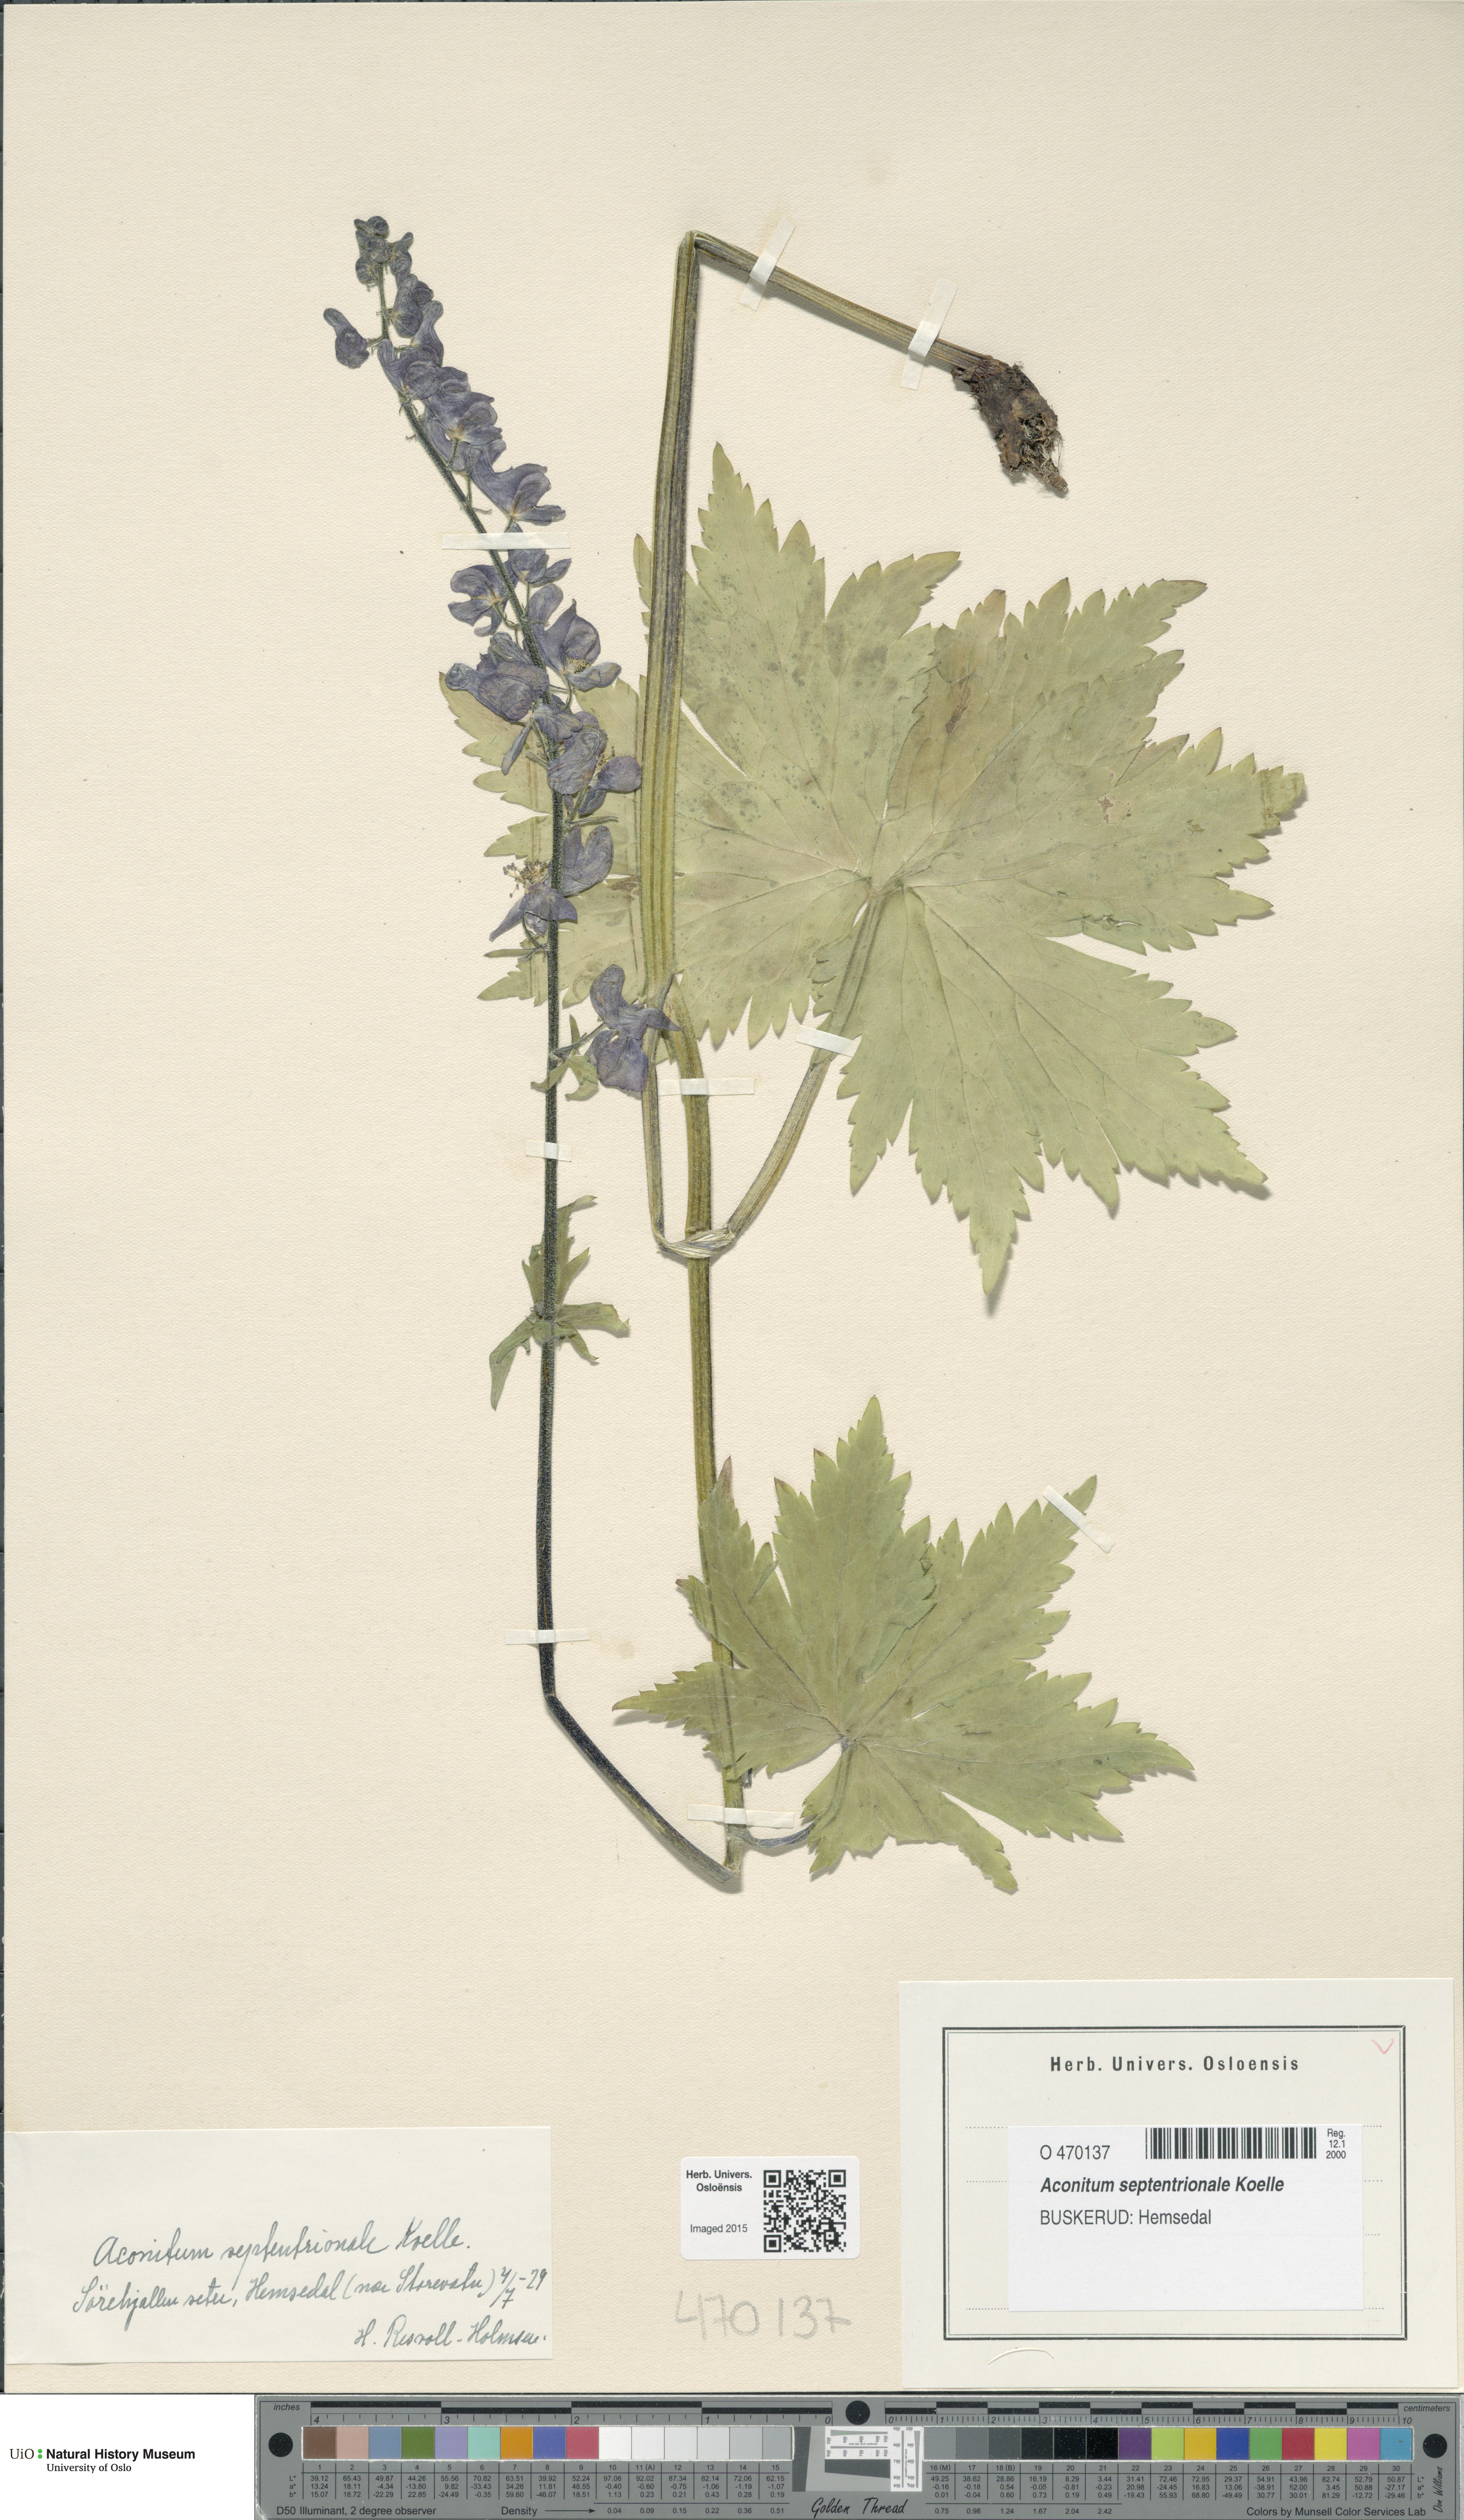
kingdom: Plantae
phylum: Tracheophyta
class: Magnoliopsida
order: Ranunculales
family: Ranunculaceae
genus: Aconitum
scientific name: Aconitum septentrionale
